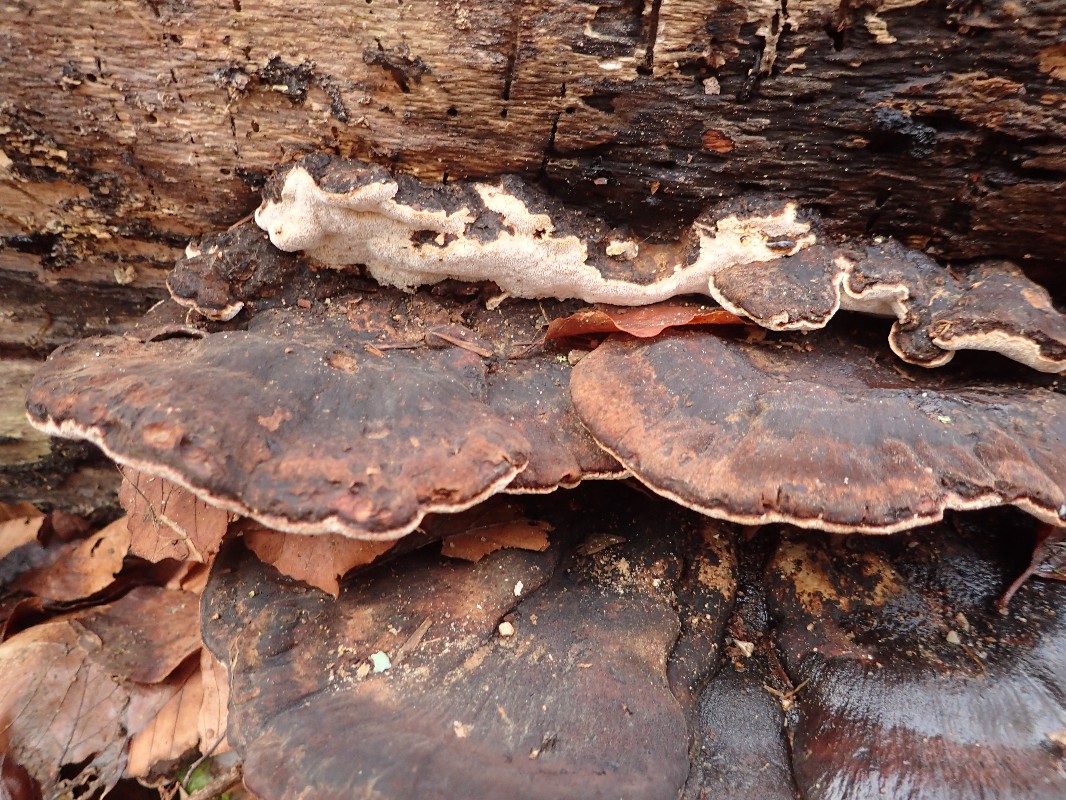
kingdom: Fungi
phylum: Basidiomycota
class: Agaricomycetes
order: Polyporales
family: Ischnodermataceae
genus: Ischnoderma
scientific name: Ischnoderma resinosum
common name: løv-tjæreporesvamp
